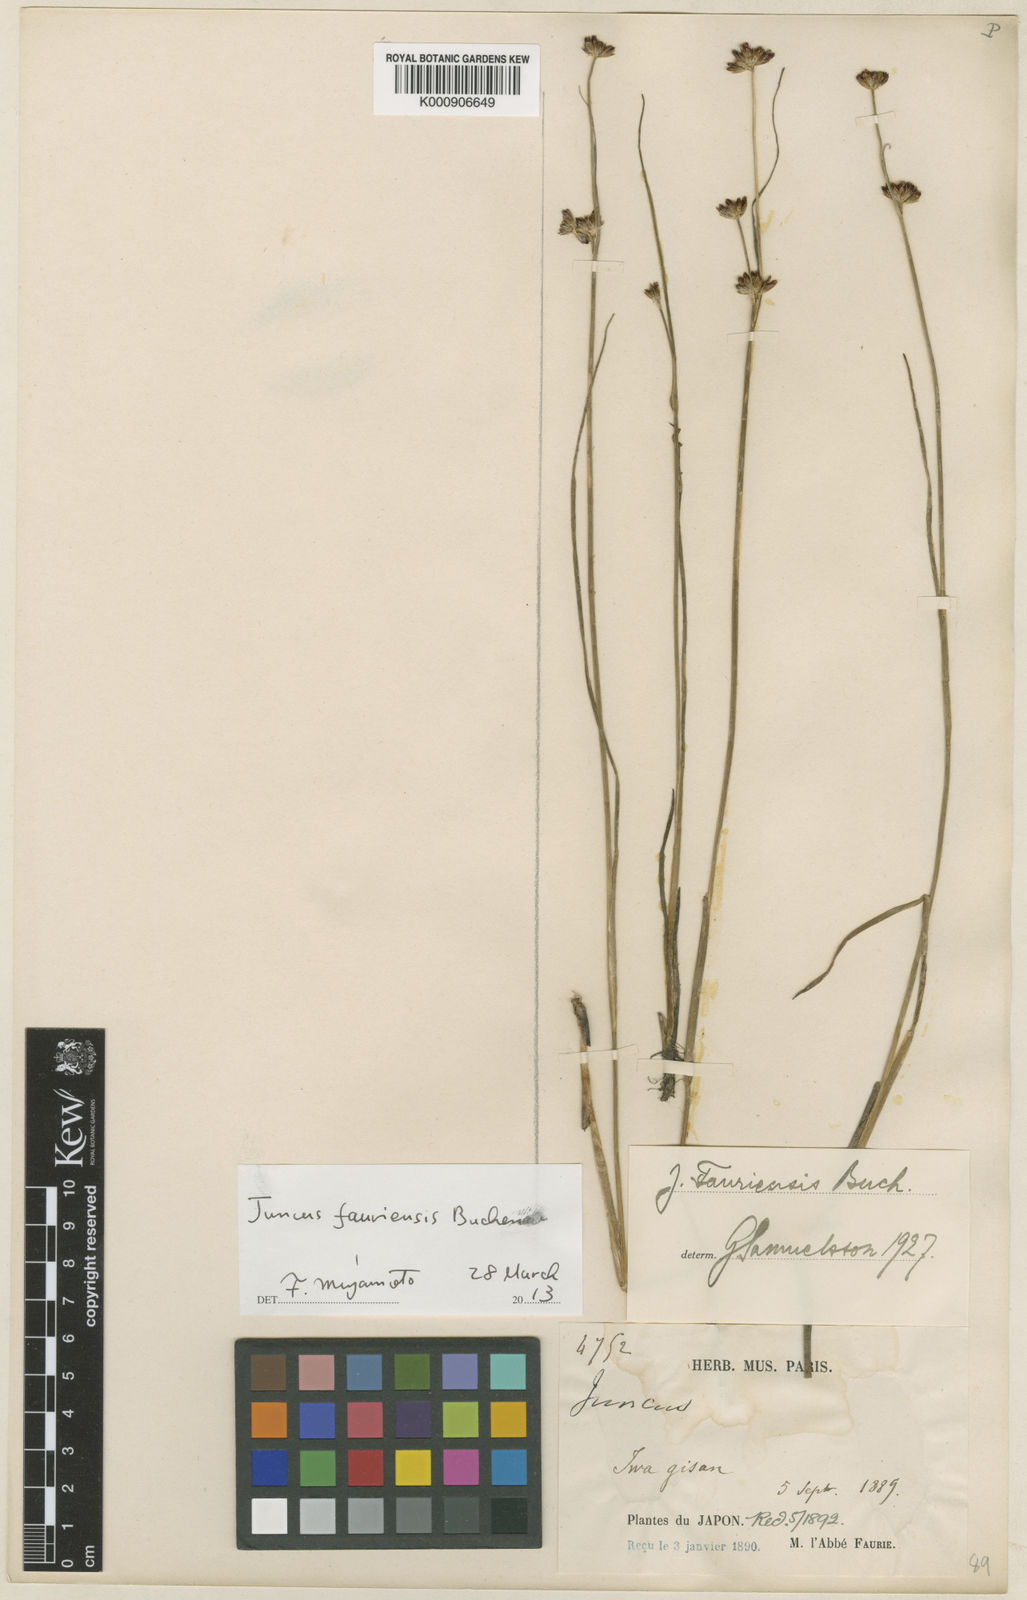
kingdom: Plantae
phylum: Tracheophyta
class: Liliopsida
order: Poales
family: Juncaceae
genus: Juncus
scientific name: Juncus fauriensis
